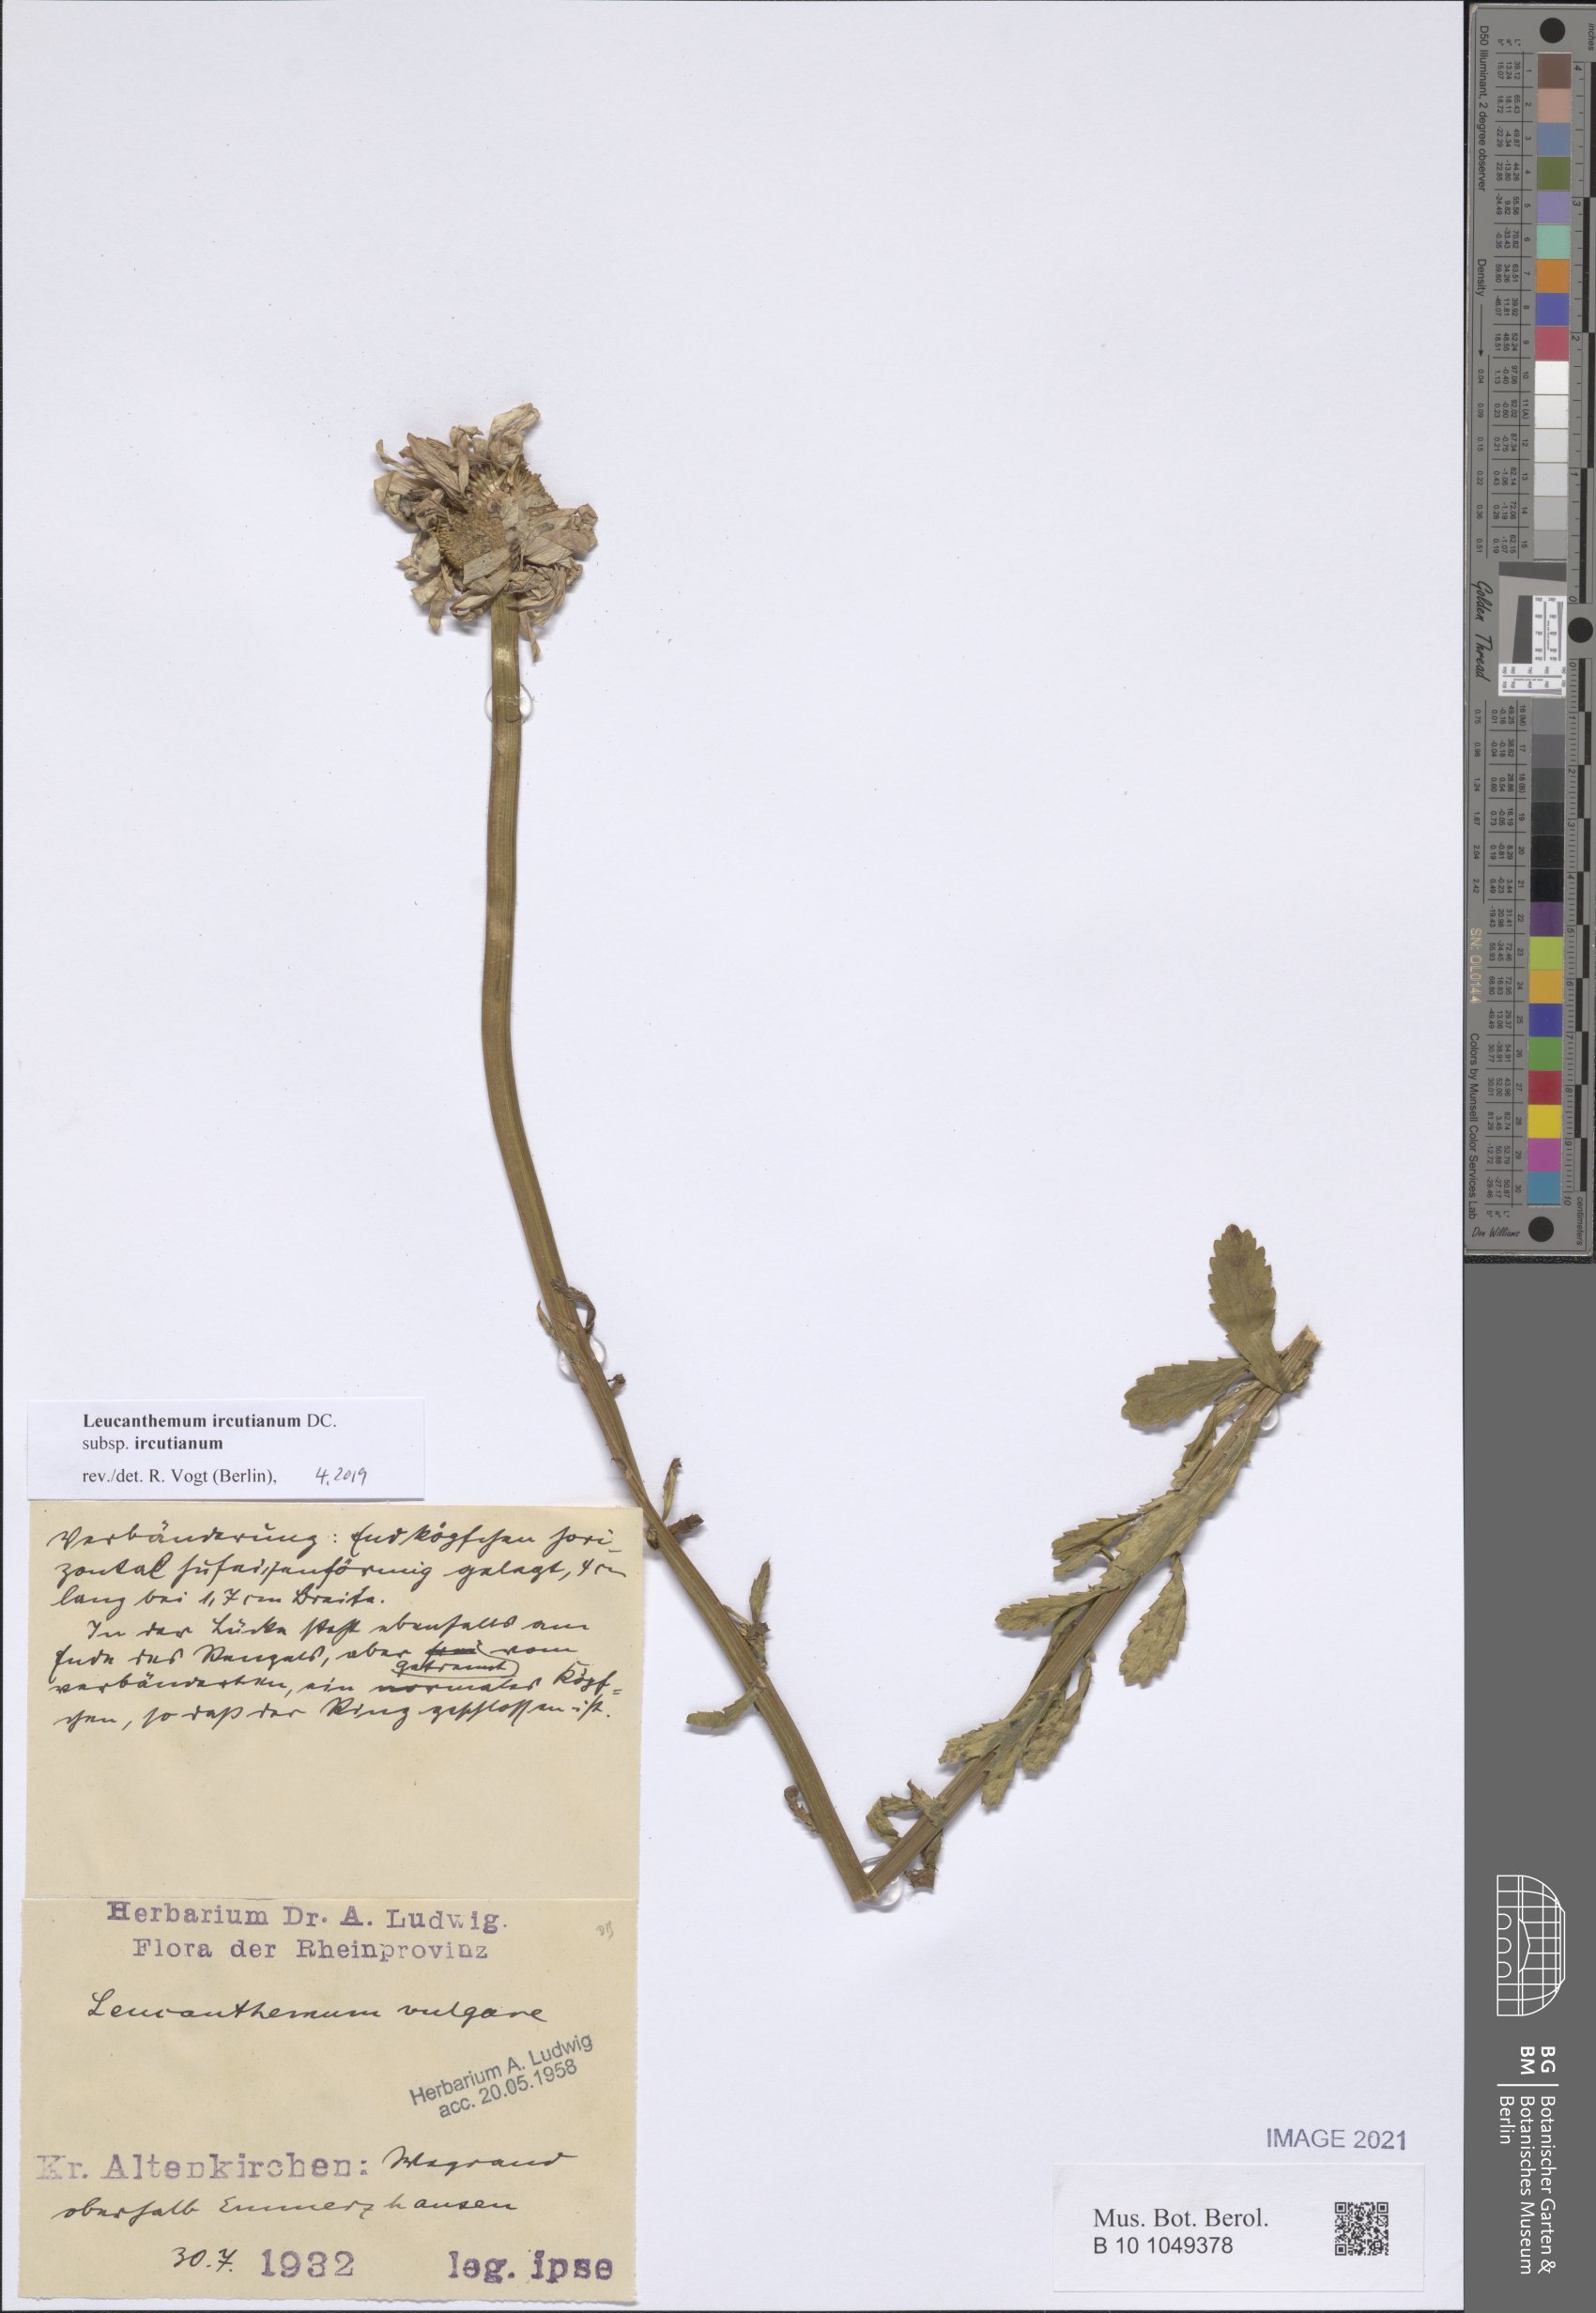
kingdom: Plantae
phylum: Tracheophyta
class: Magnoliopsida
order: Asterales
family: Asteraceae
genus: Leucanthemum
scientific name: Leucanthemum ircutianum
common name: Daisy
